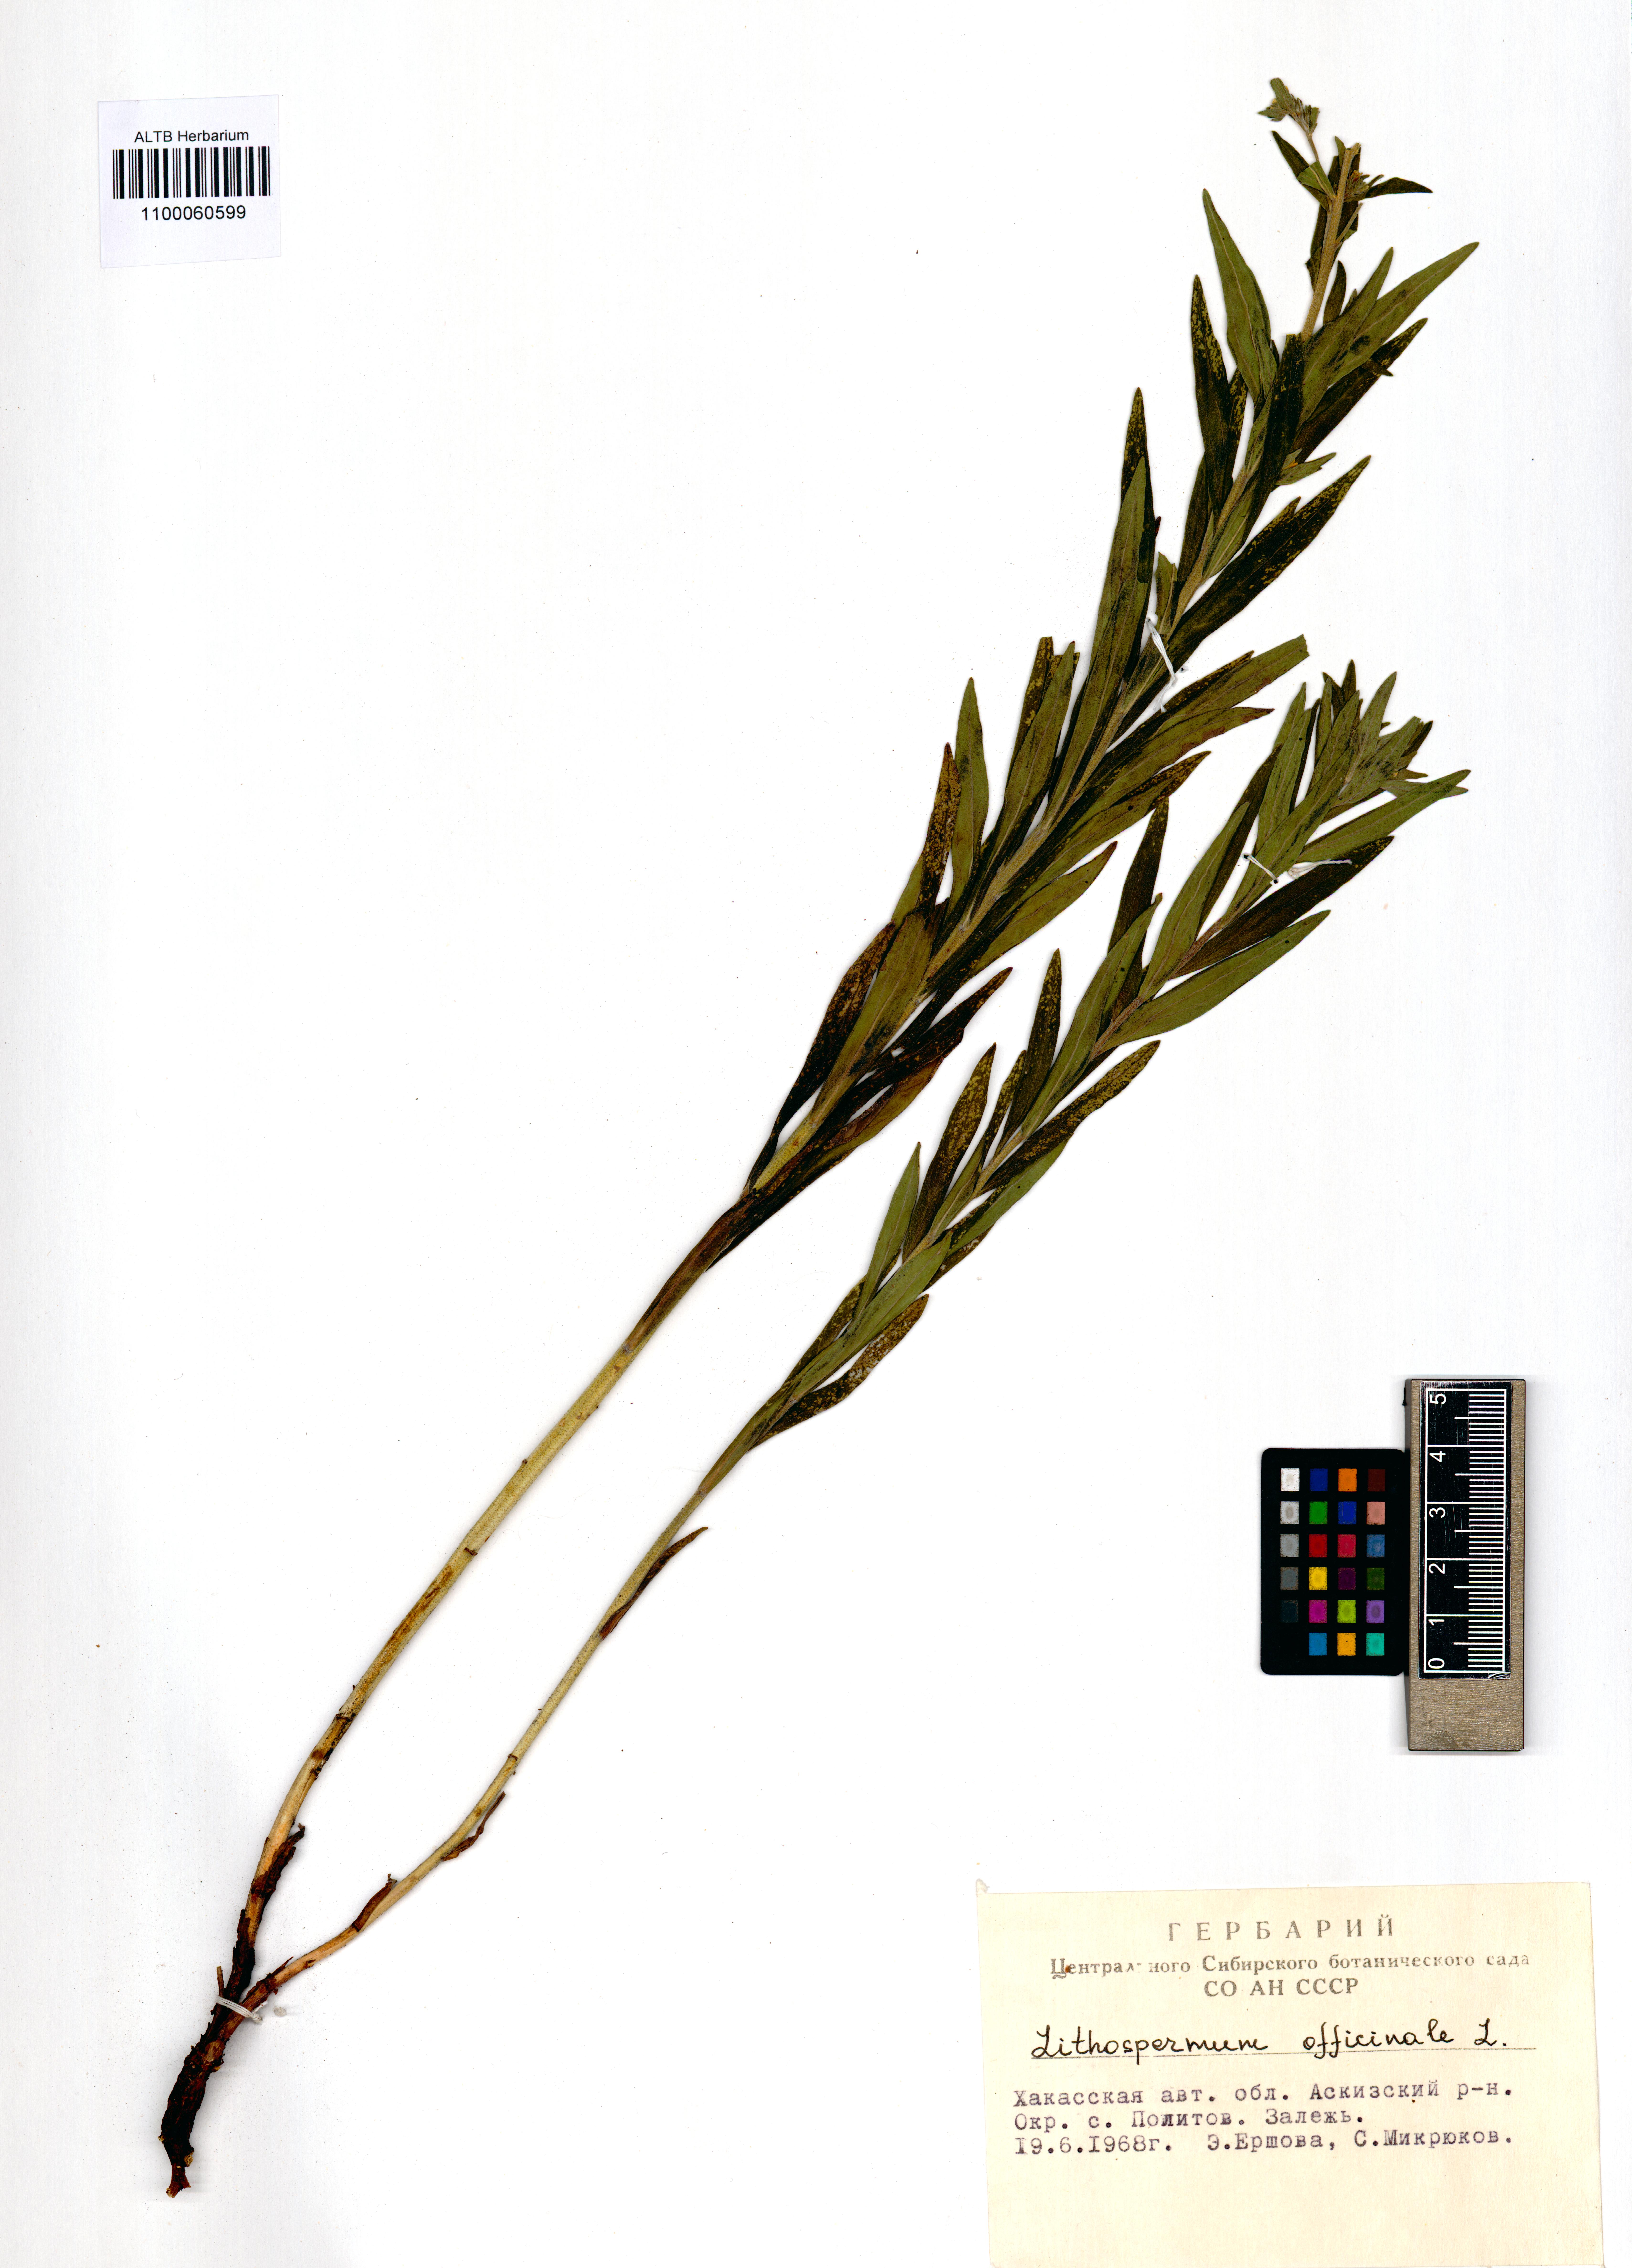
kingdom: Plantae
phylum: Tracheophyta
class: Magnoliopsida
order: Boraginales
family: Boraginaceae
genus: Lithospermum
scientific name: Lithospermum officinale
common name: Common gromwell
